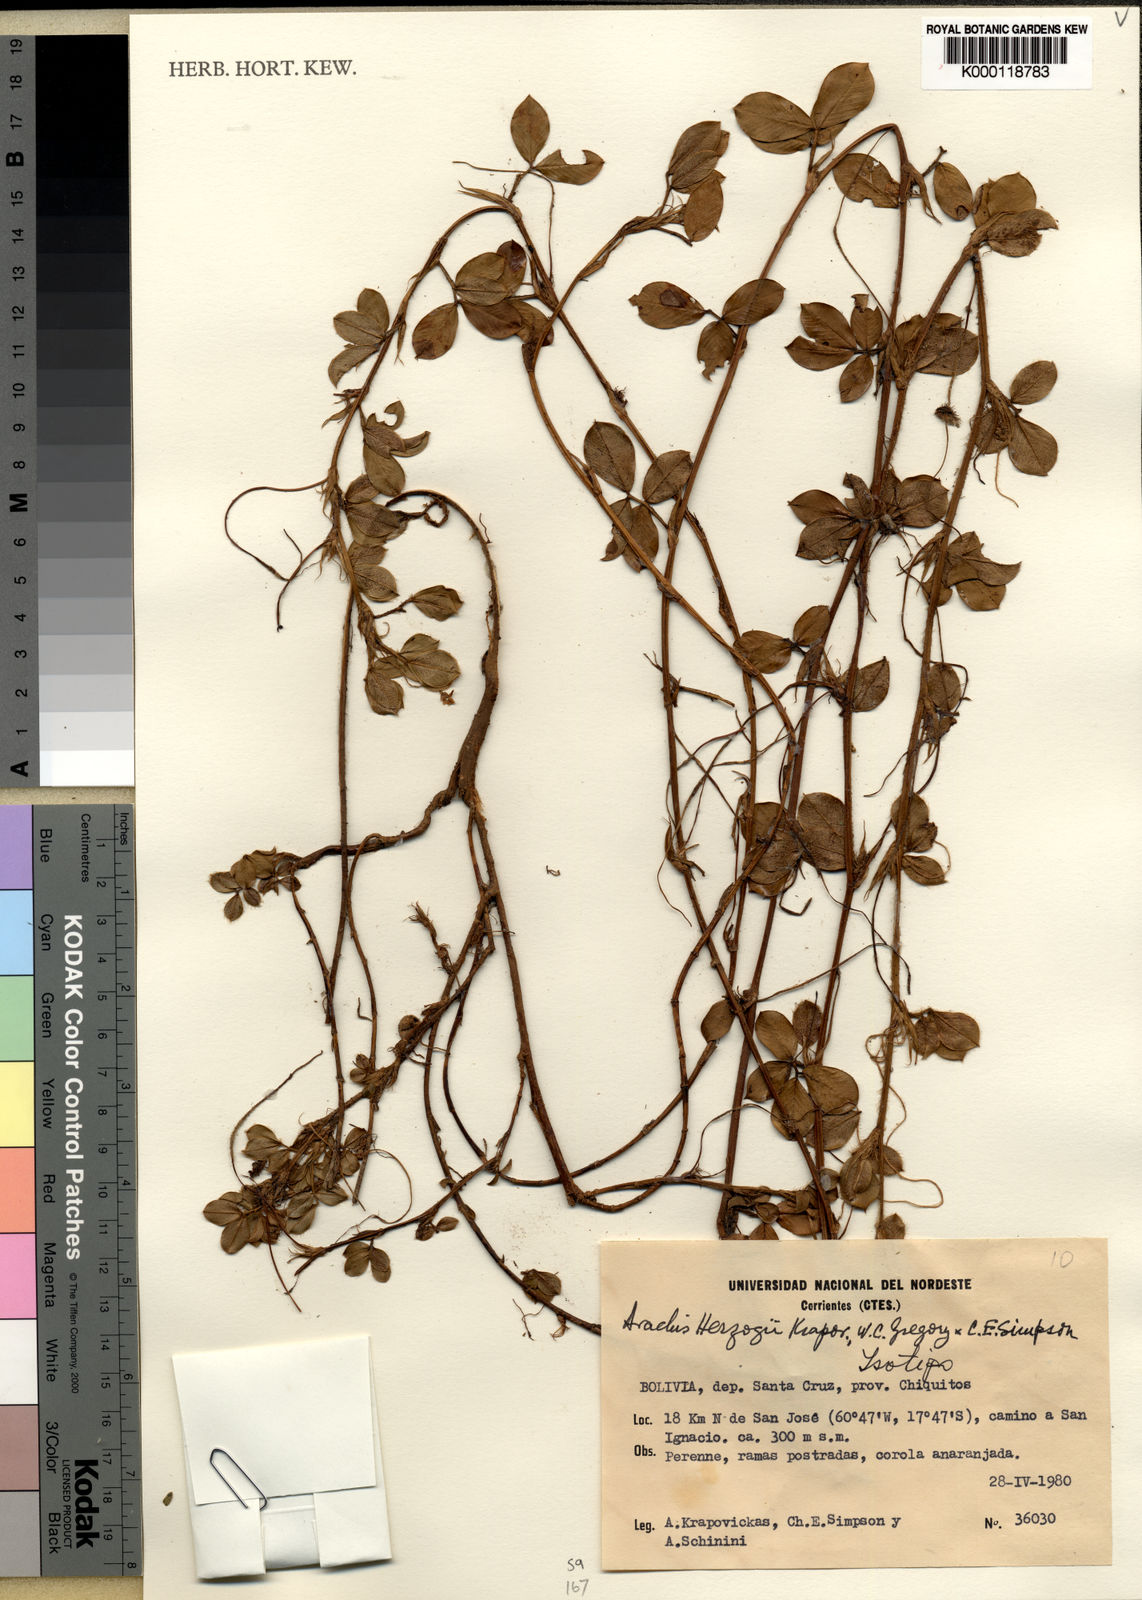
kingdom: Plantae
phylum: Tracheophyta
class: Magnoliopsida
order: Fabales
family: Fabaceae
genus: Arachis
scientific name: Arachis
